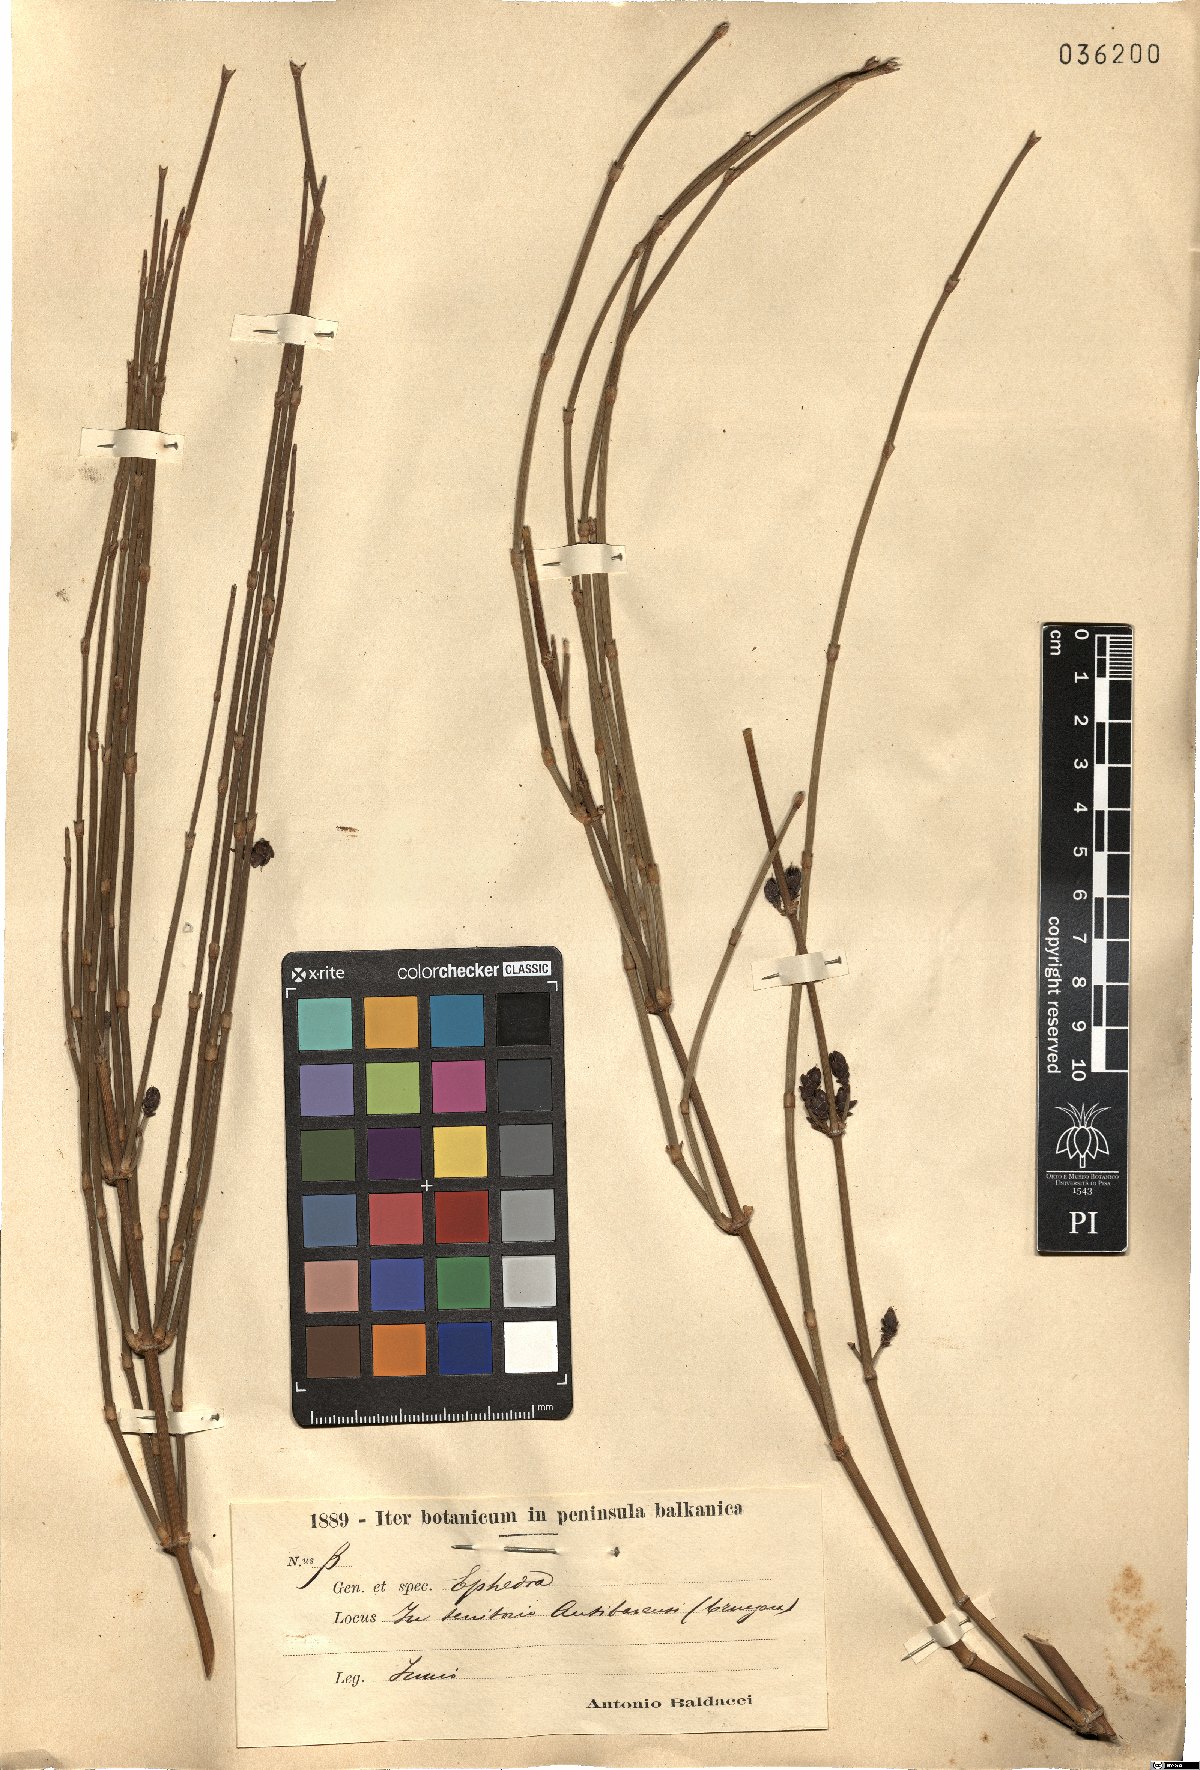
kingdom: Plantae
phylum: Tracheophyta
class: Gnetopsida
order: Ephedrales
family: Ephedraceae
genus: Ephedra
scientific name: Ephedra
